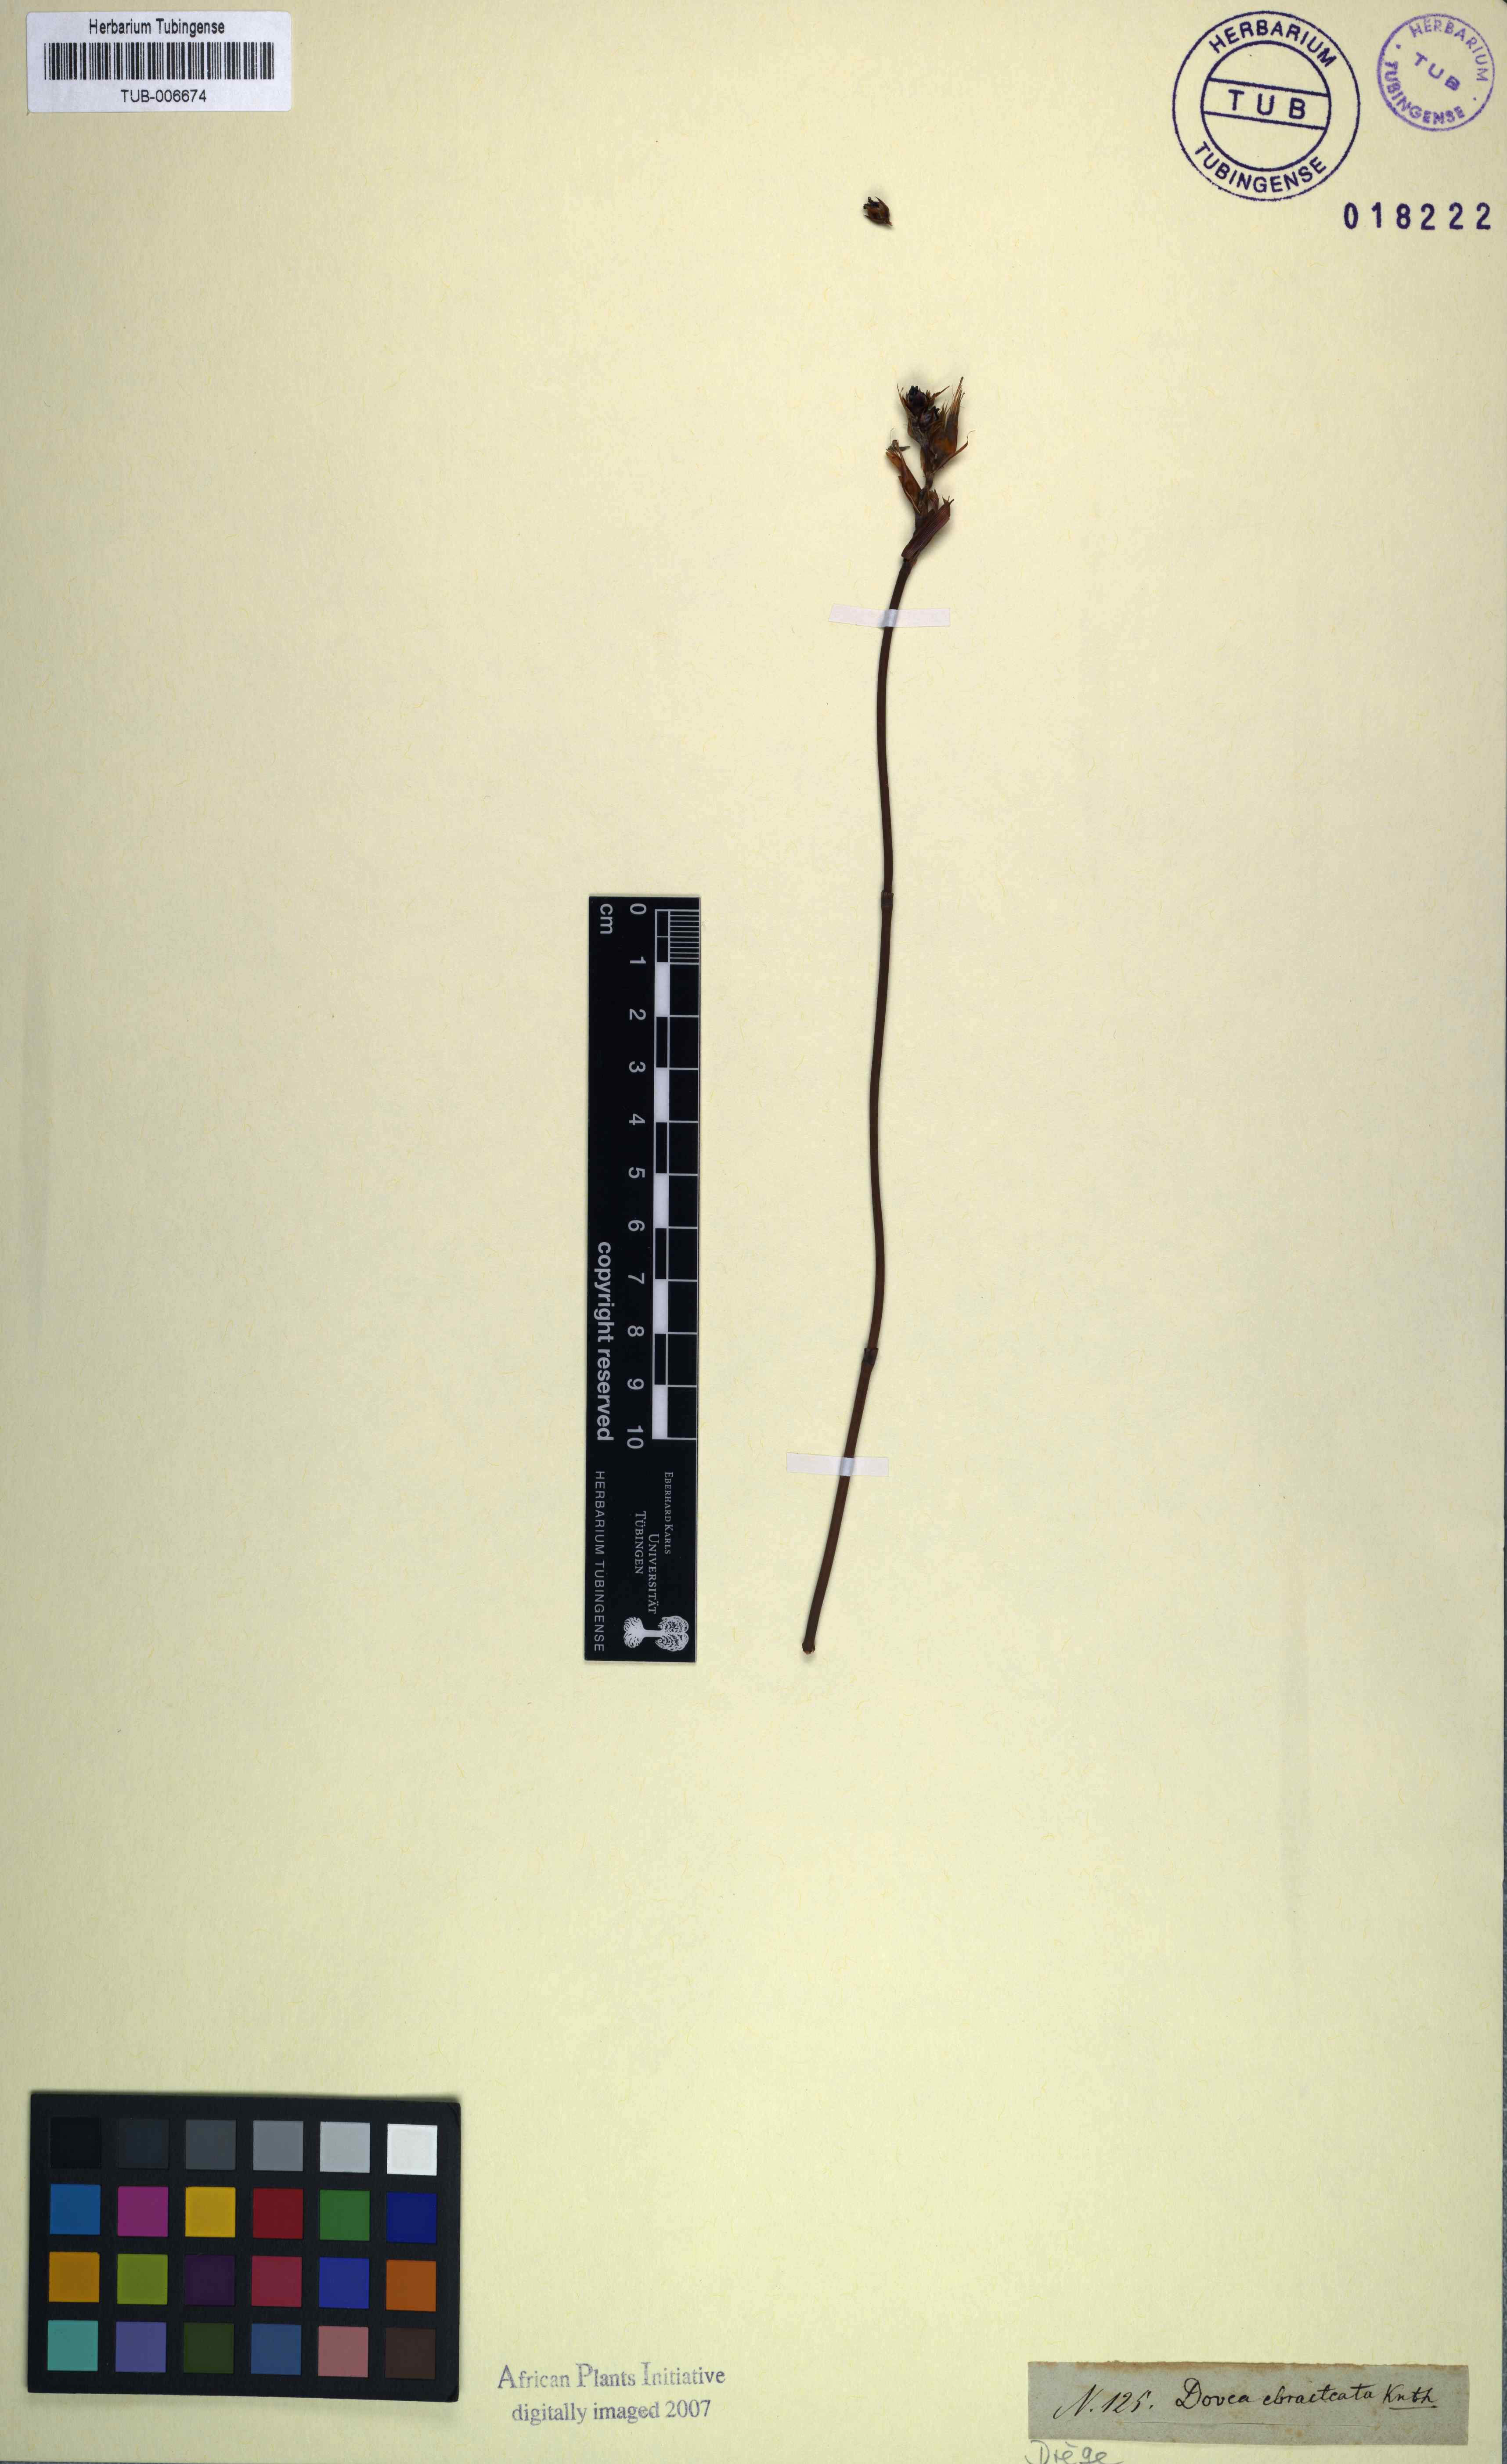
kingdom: Plantae
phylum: Tracheophyta
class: Liliopsida
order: Poales
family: Restionaceae
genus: Elegia
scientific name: Elegia ebracteata
